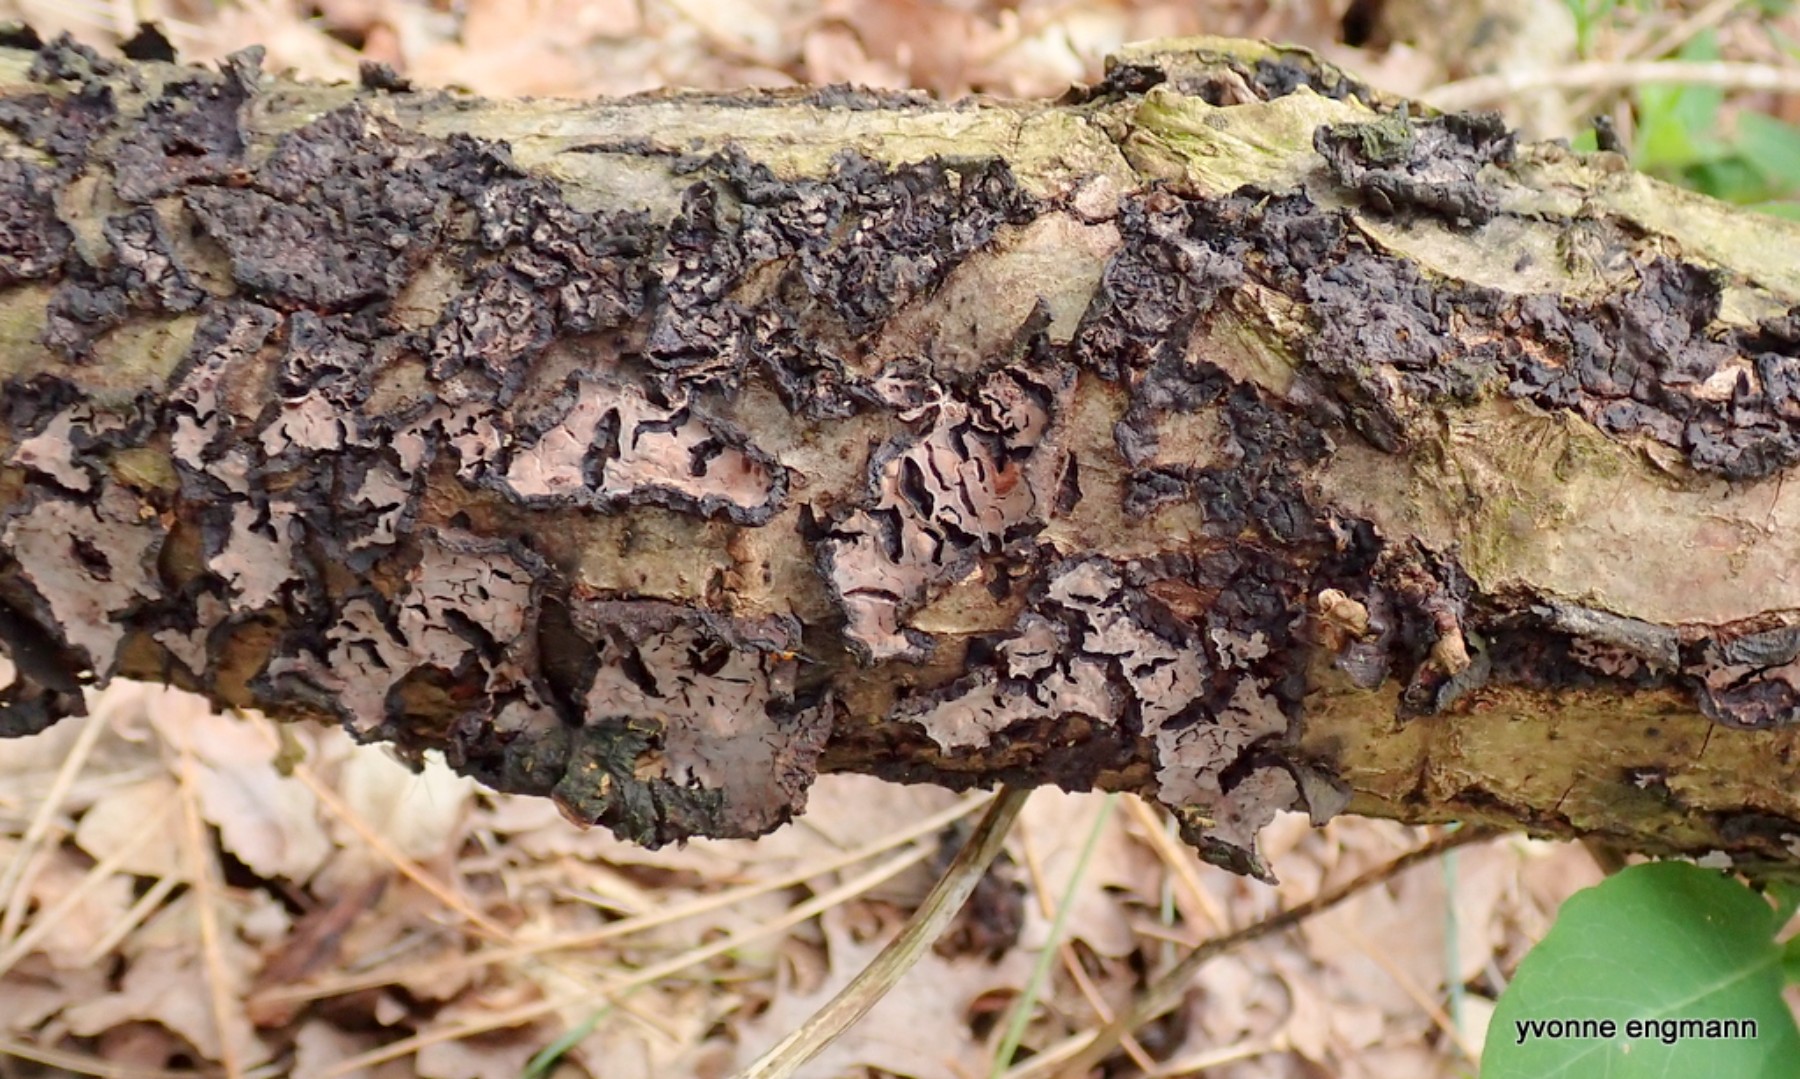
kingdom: Fungi
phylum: Basidiomycota
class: Agaricomycetes
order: Russulales
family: Peniophoraceae
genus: Peniophora
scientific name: Peniophora quercina
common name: ege-voksskind
